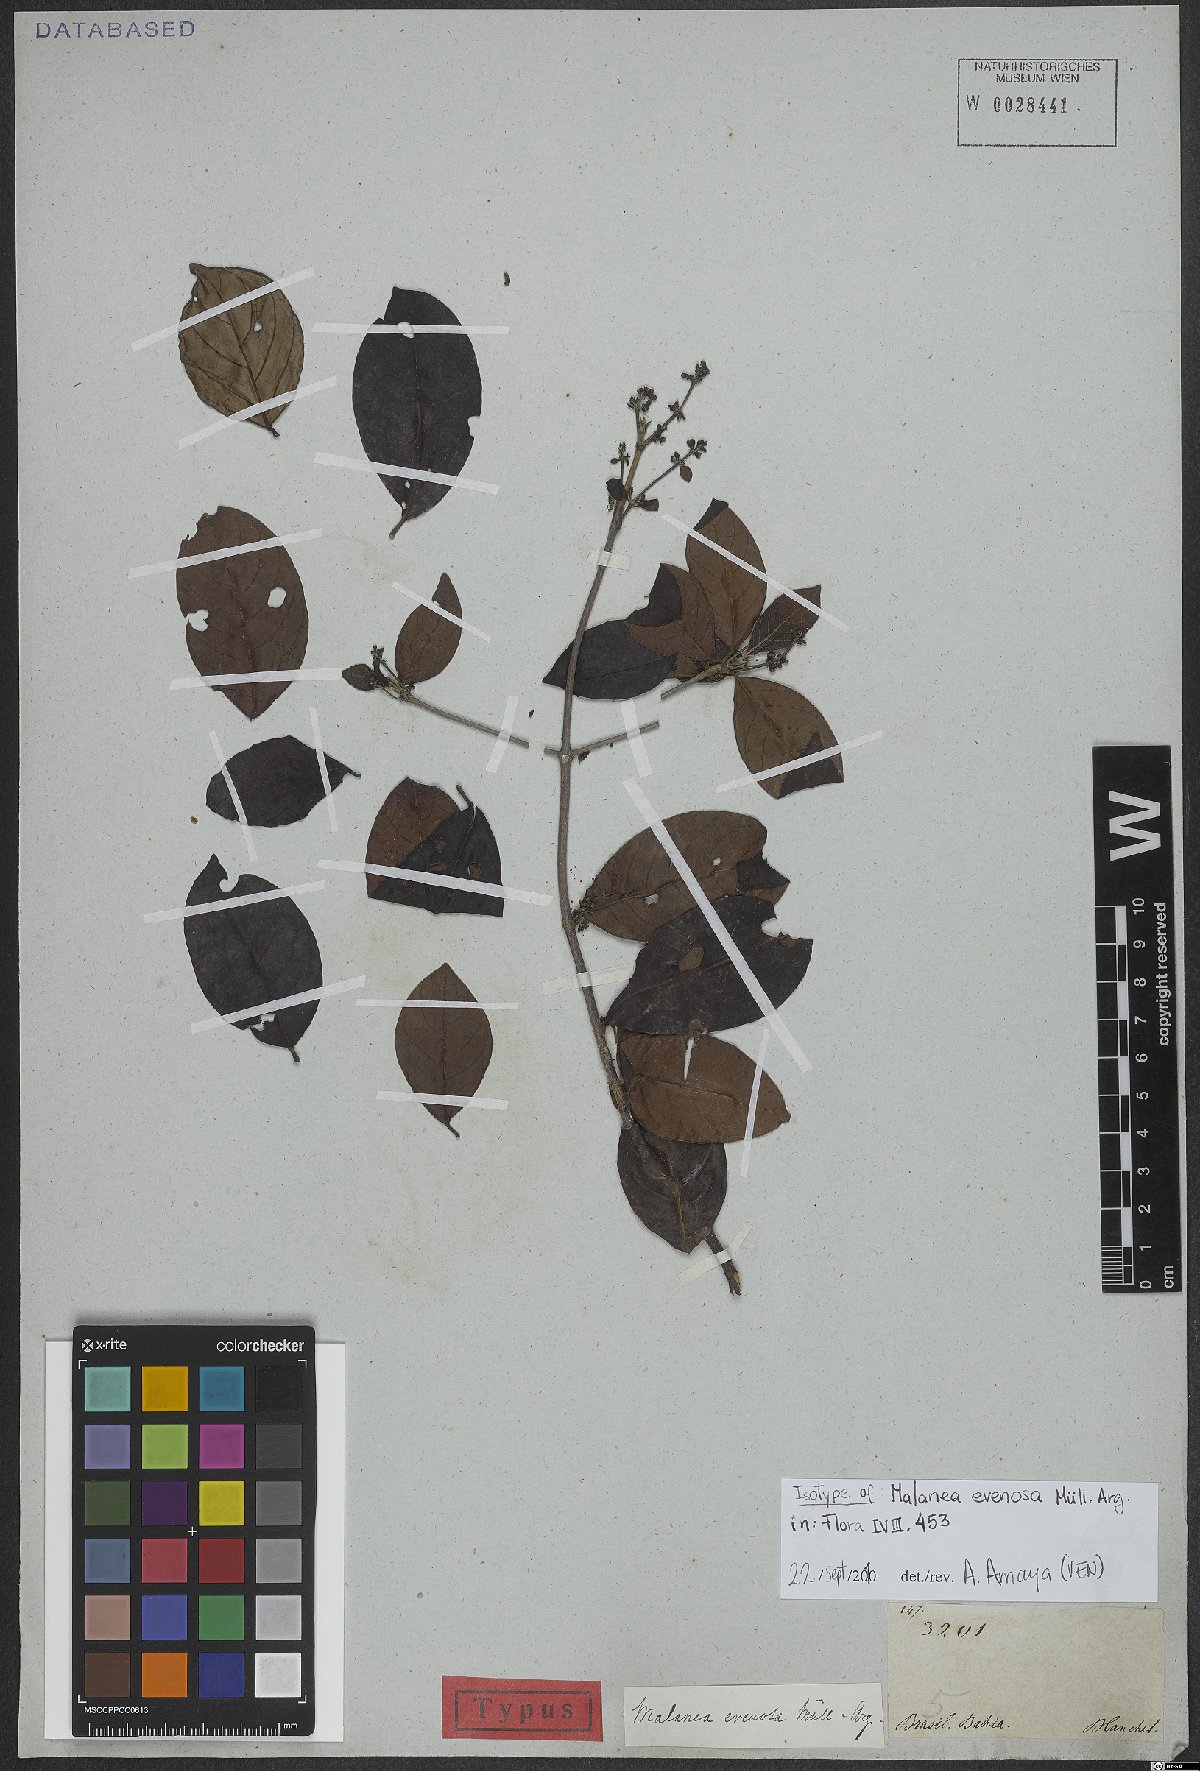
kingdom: Plantae
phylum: Tracheophyta
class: Magnoliopsida
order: Gentianales
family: Rubiaceae
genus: Malanea
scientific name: Malanea evenosa
